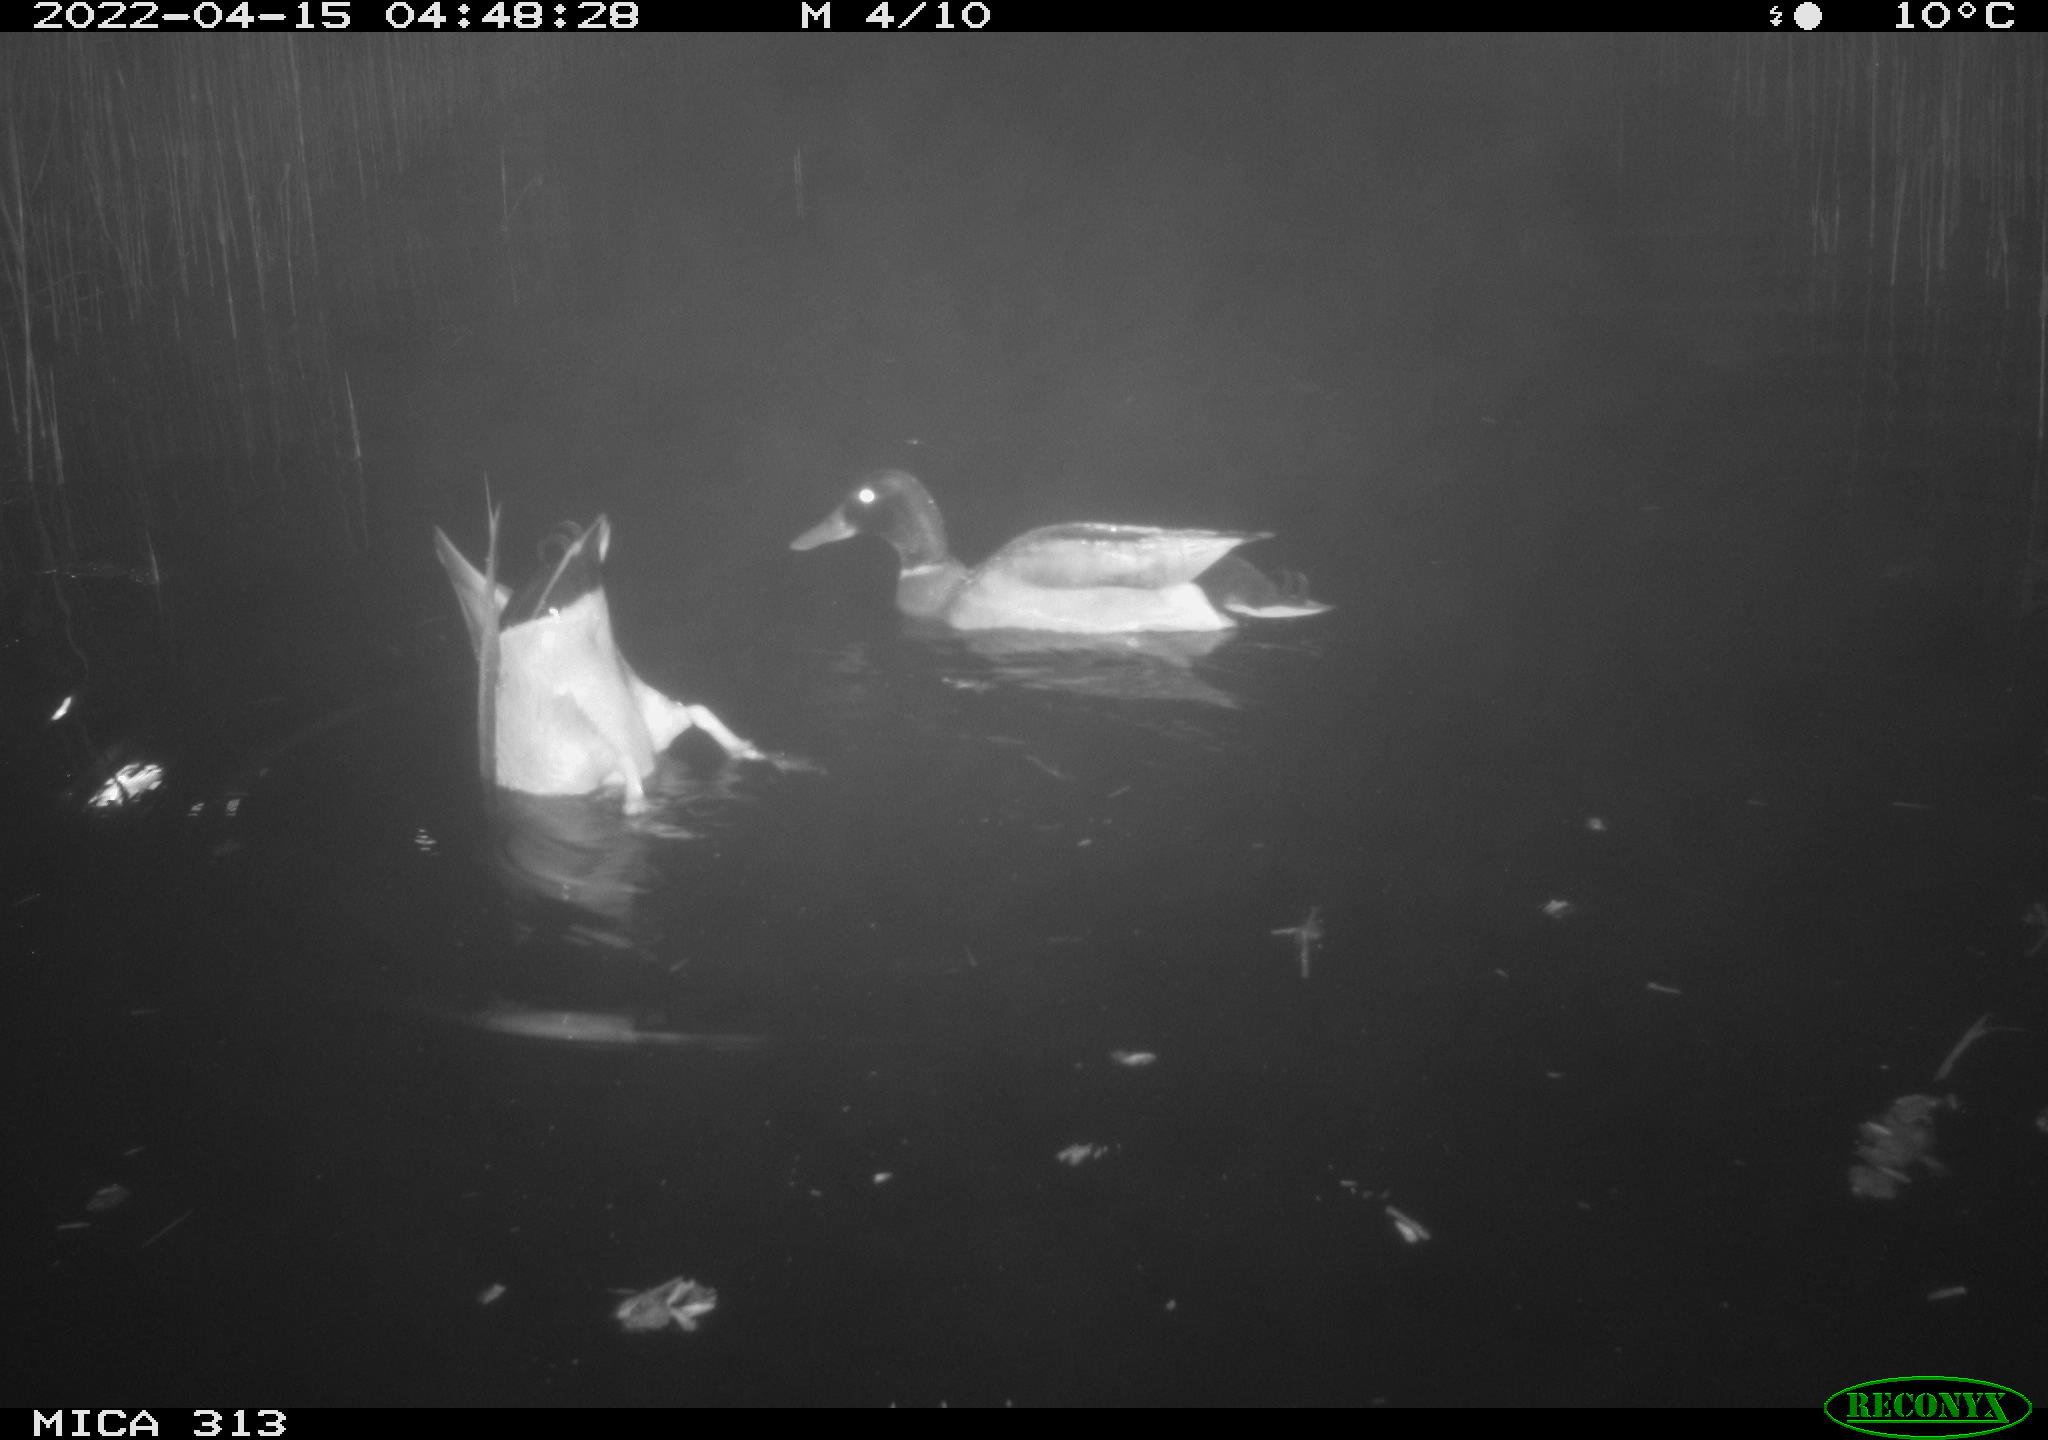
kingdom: Animalia
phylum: Chordata
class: Aves
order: Anseriformes
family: Anatidae
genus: Mareca
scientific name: Mareca strepera
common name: Gadwall
